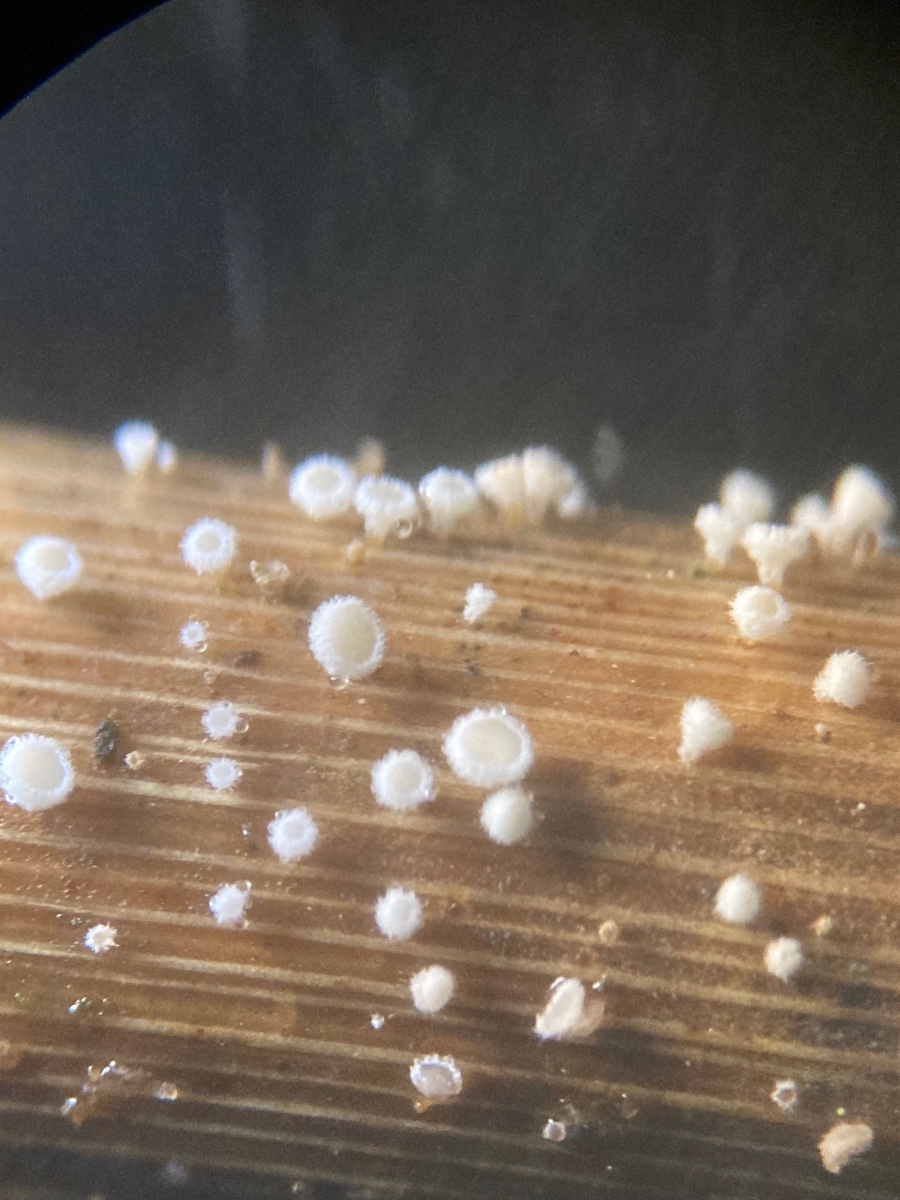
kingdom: Fungi
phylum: Ascomycota
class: Leotiomycetes
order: Helotiales
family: Lachnaceae
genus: Lachnum
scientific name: Lachnum apalum
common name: siv-frynseskive
